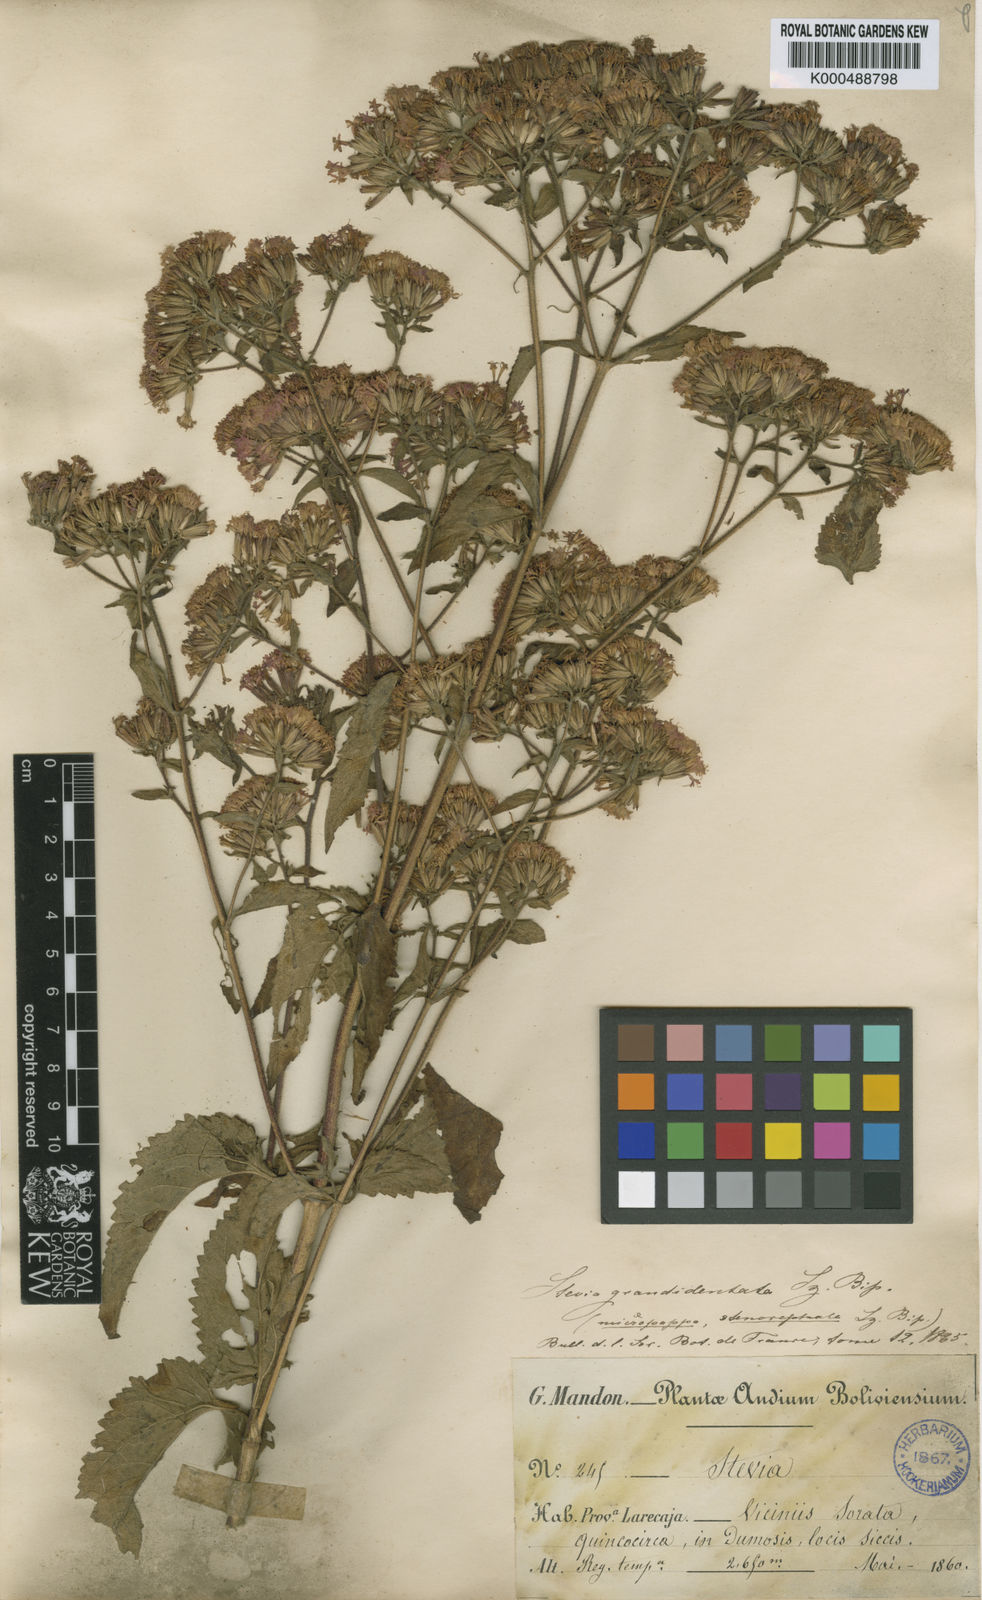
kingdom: Plantae
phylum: Tracheophyta
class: Magnoliopsida
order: Asterales
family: Asteraceae
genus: Stevia
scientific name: Stevia soratensis
